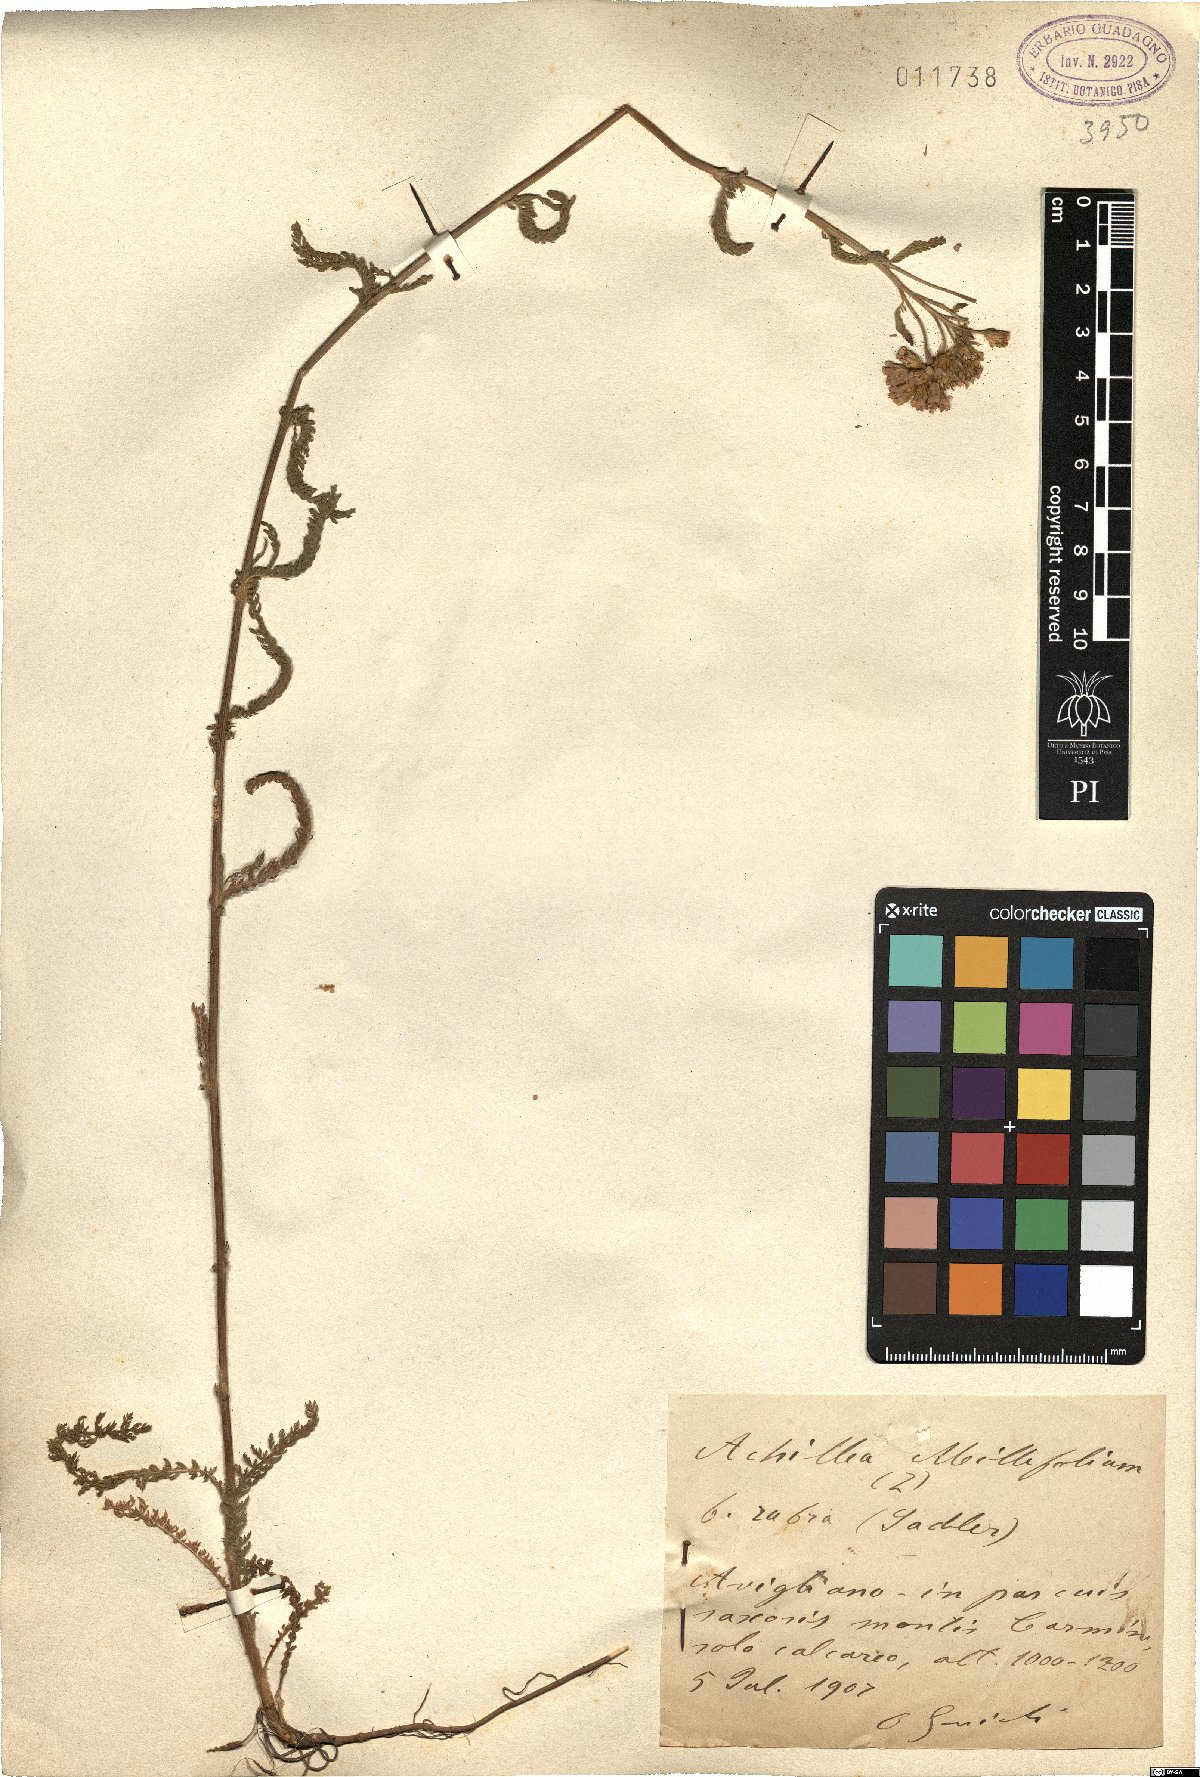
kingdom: Plantae
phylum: Tracheophyta
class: Magnoliopsida
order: Asterales
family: Asteraceae
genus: Achillea
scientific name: Achillea aspleniifolia
